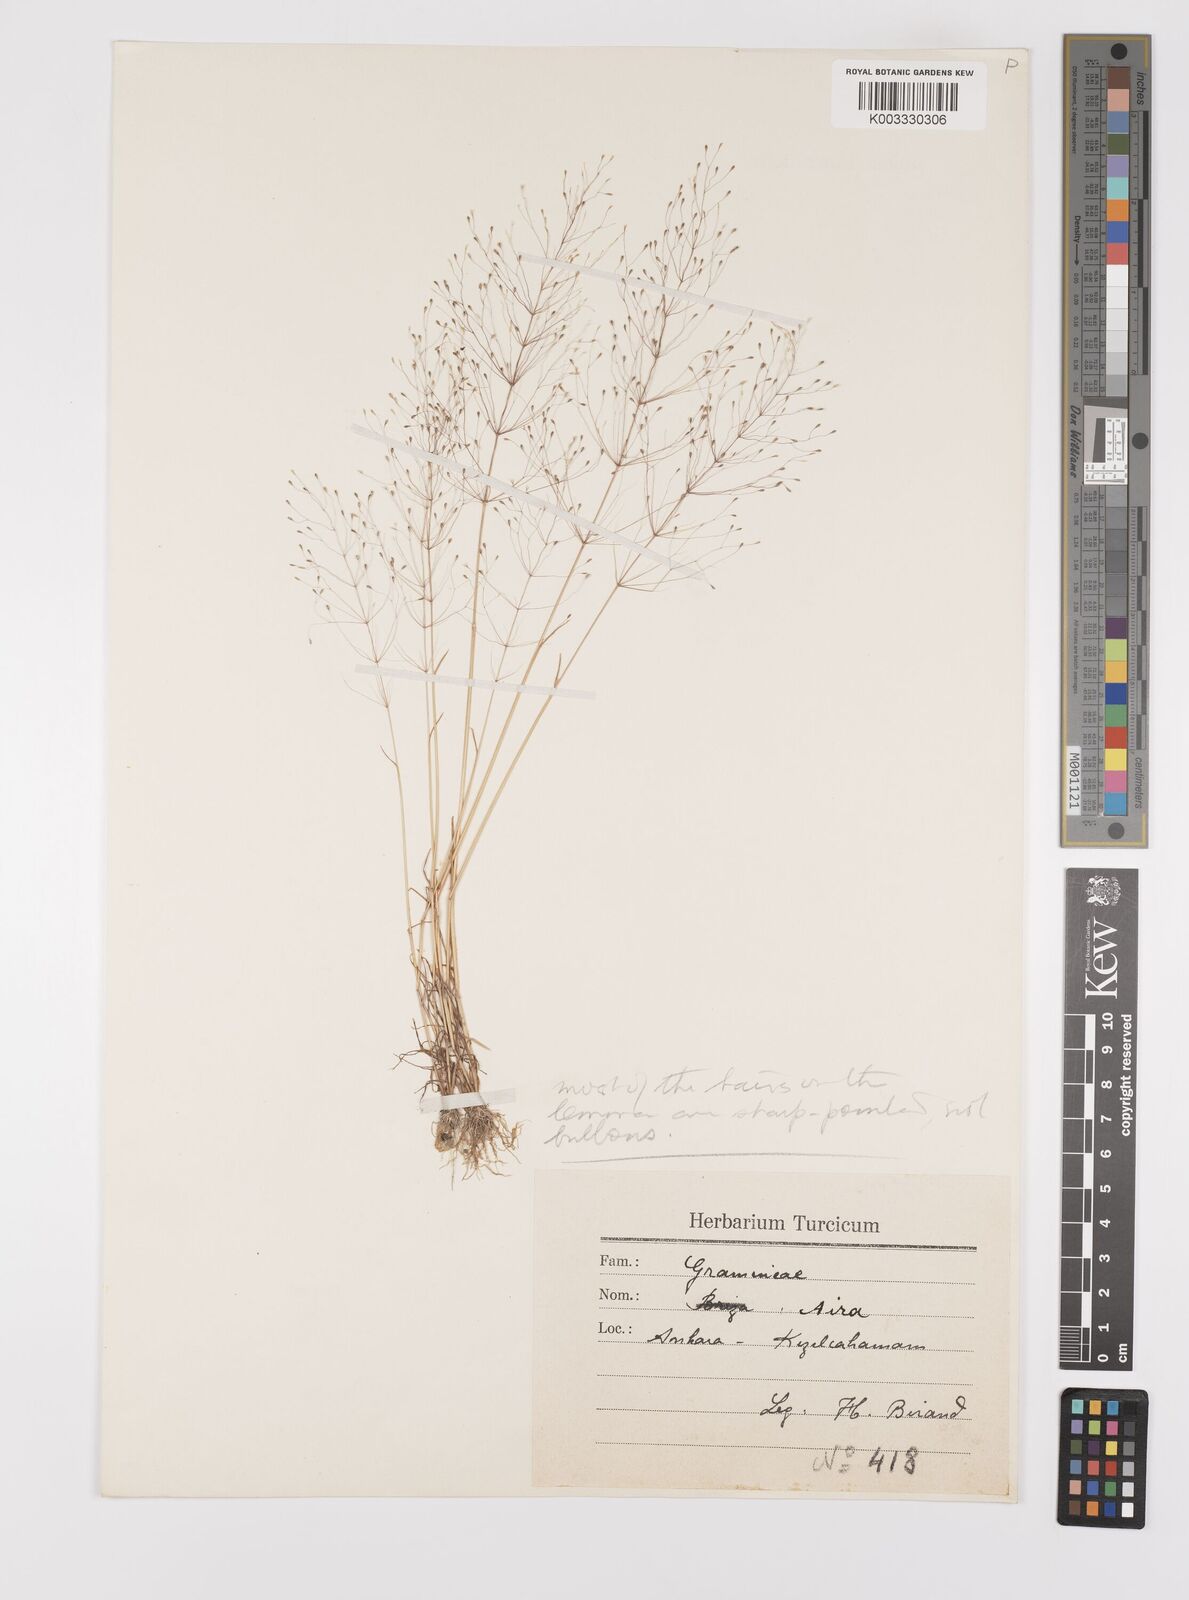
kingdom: Plantae
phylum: Tracheophyta
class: Liliopsida
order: Poales
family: Poaceae
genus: Colpodium
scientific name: Colpodium verticillatum
